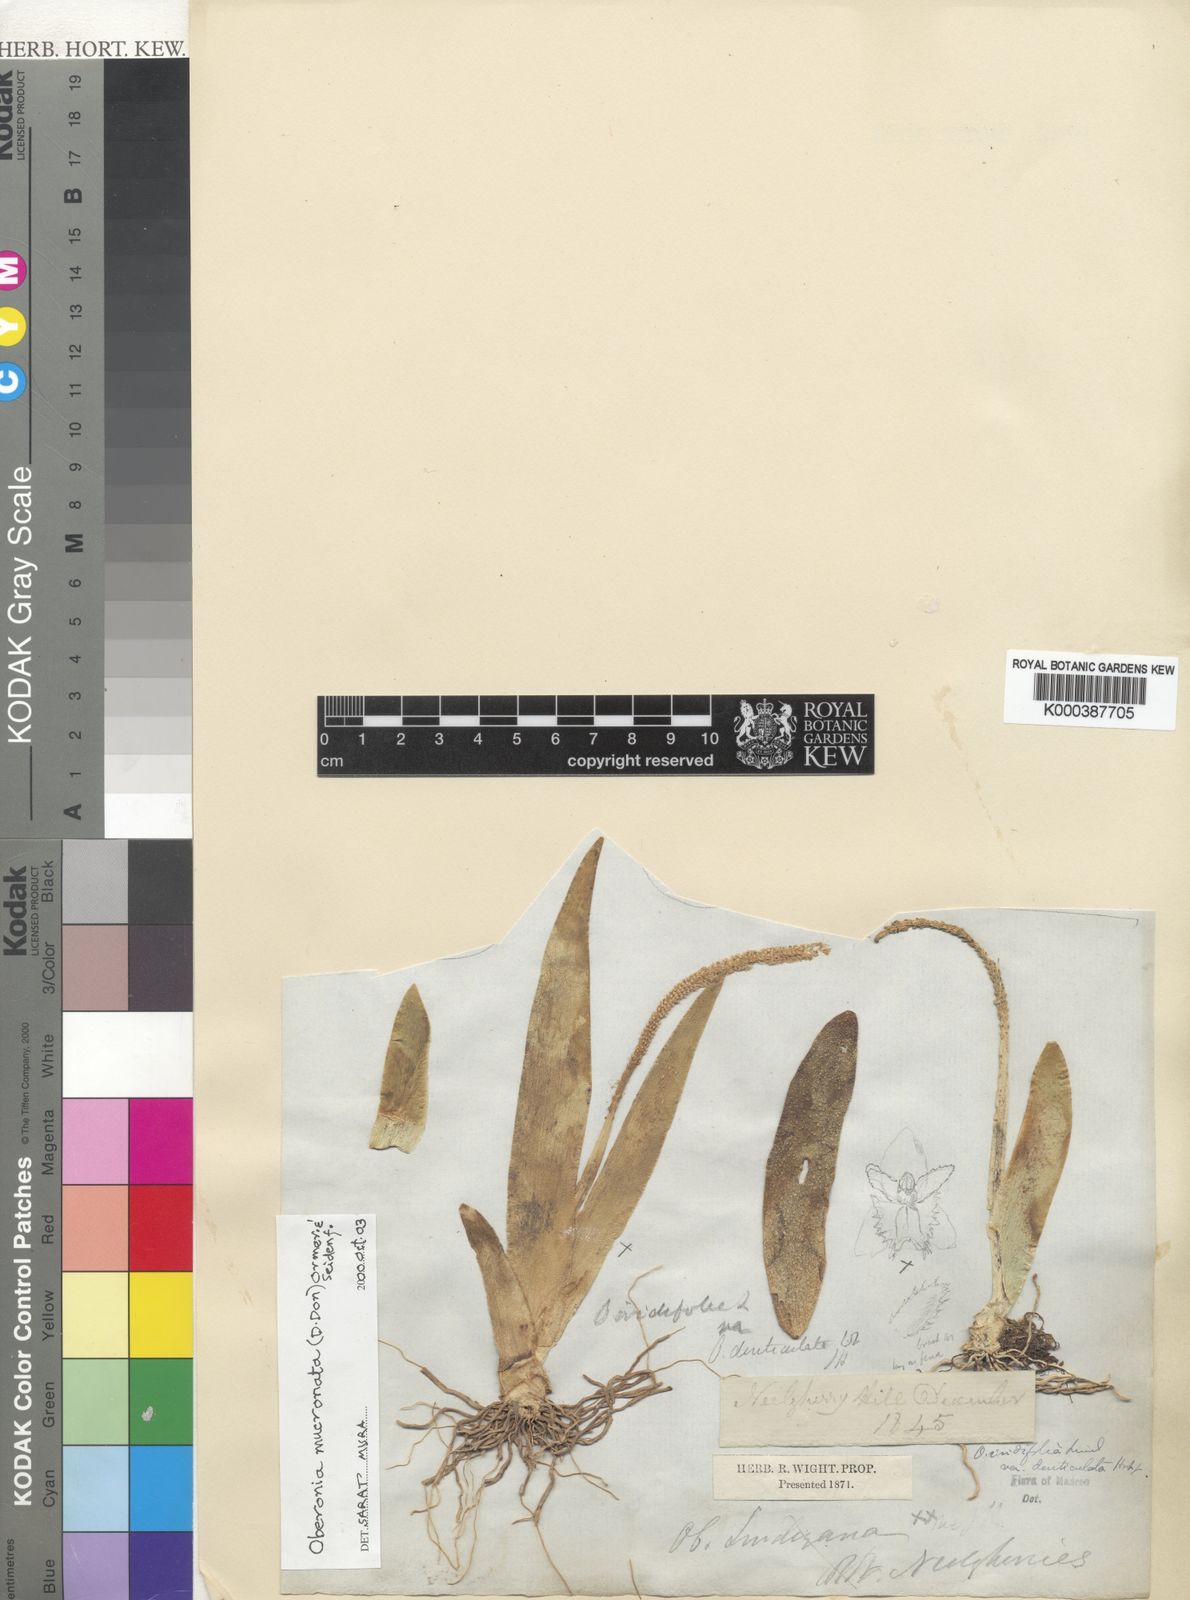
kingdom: Plantae
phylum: Tracheophyta
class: Liliopsida
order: Asparagales
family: Orchidaceae
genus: Oberonia
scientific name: Oberonia
